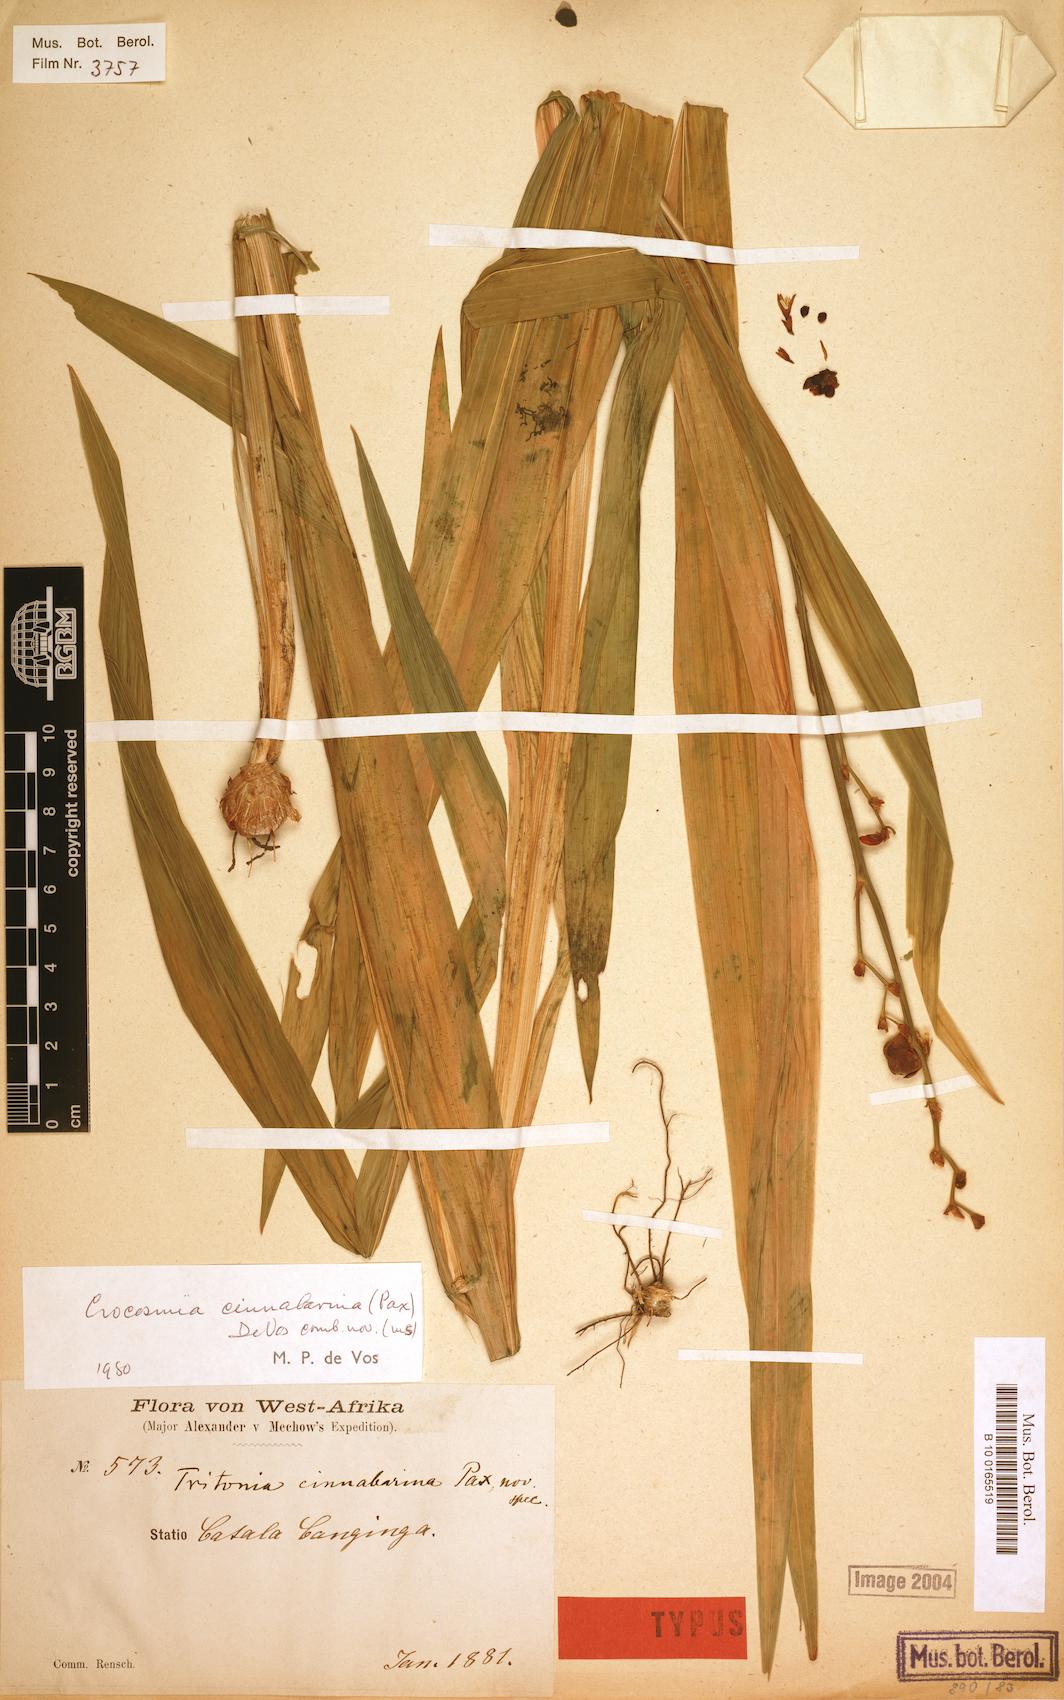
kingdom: Plantae
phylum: Tracheophyta
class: Liliopsida
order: Asparagales
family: Iridaceae
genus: Crocosmia
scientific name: Crocosmia aurea
